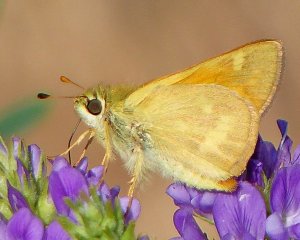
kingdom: Animalia
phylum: Arthropoda
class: Insecta
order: Lepidoptera
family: Hesperiidae
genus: Ochlodes
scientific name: Ochlodes sylvanoides
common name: Woodland Skipper
